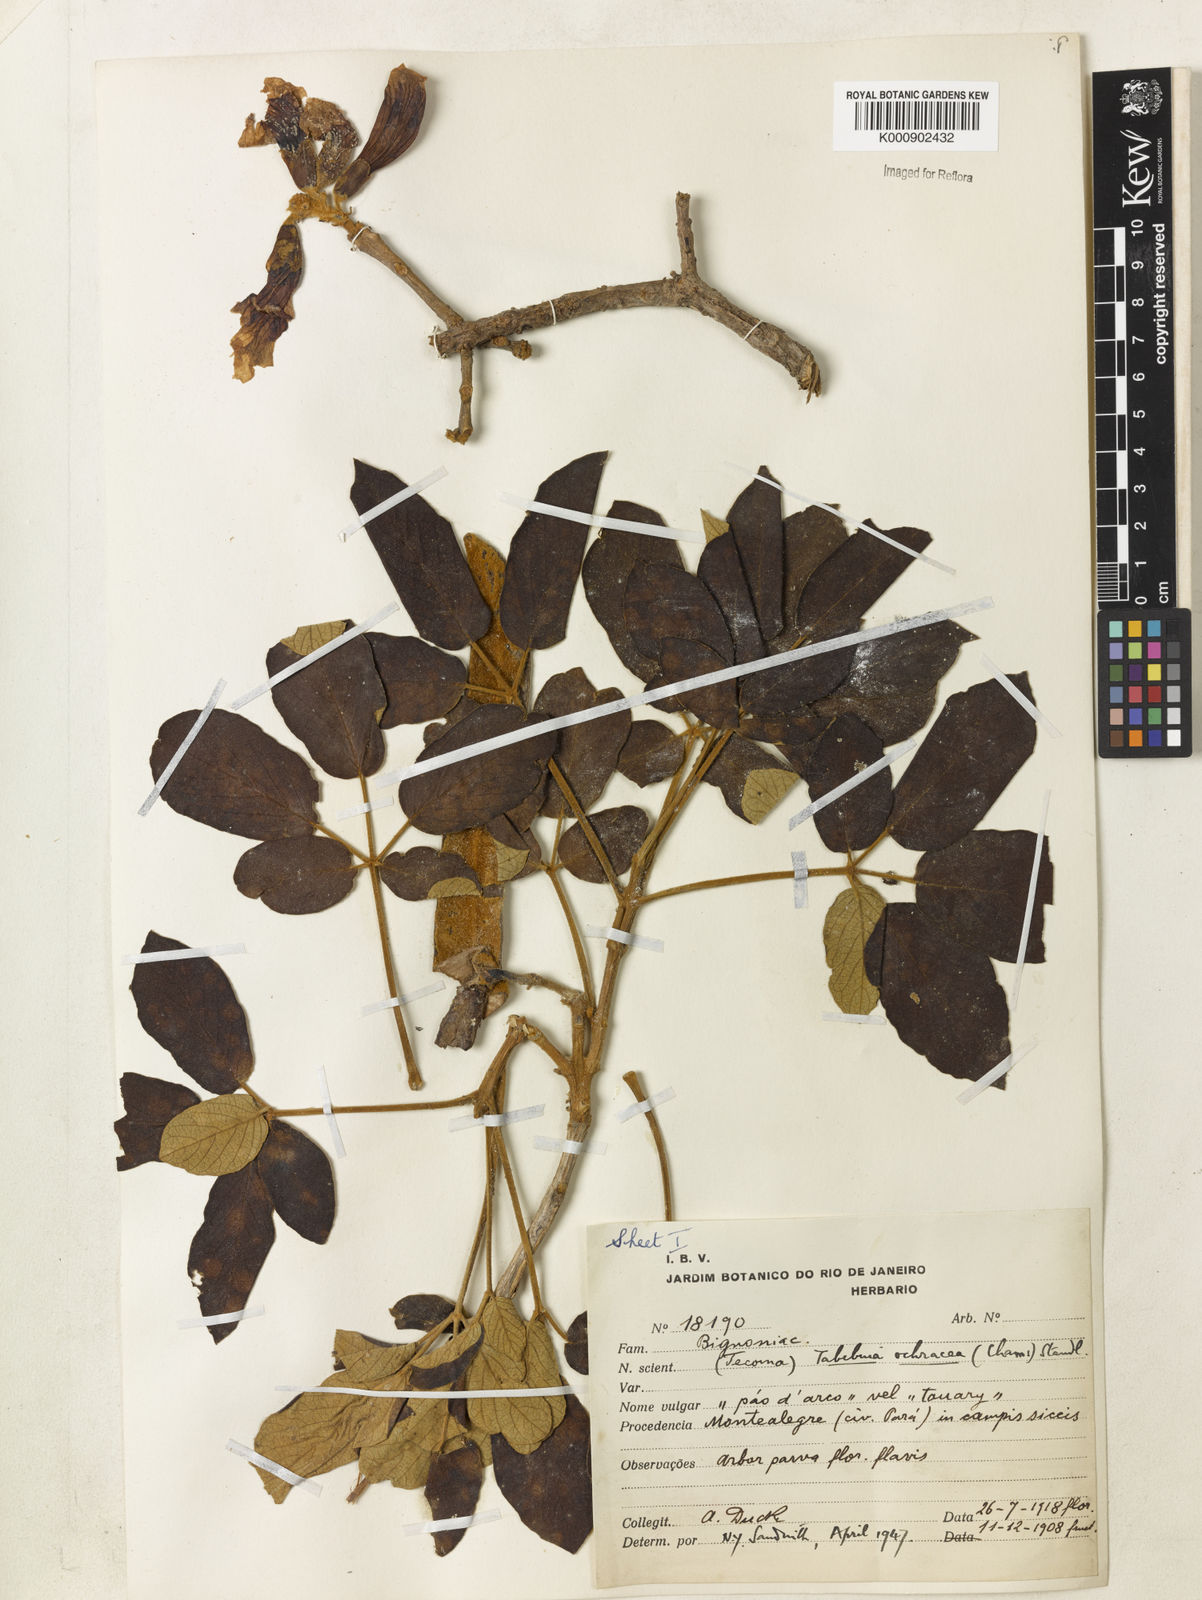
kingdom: Plantae
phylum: Tracheophyta
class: Magnoliopsida
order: Lamiales
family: Bignoniaceae
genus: Handroanthus
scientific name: Handroanthus ochraceus
